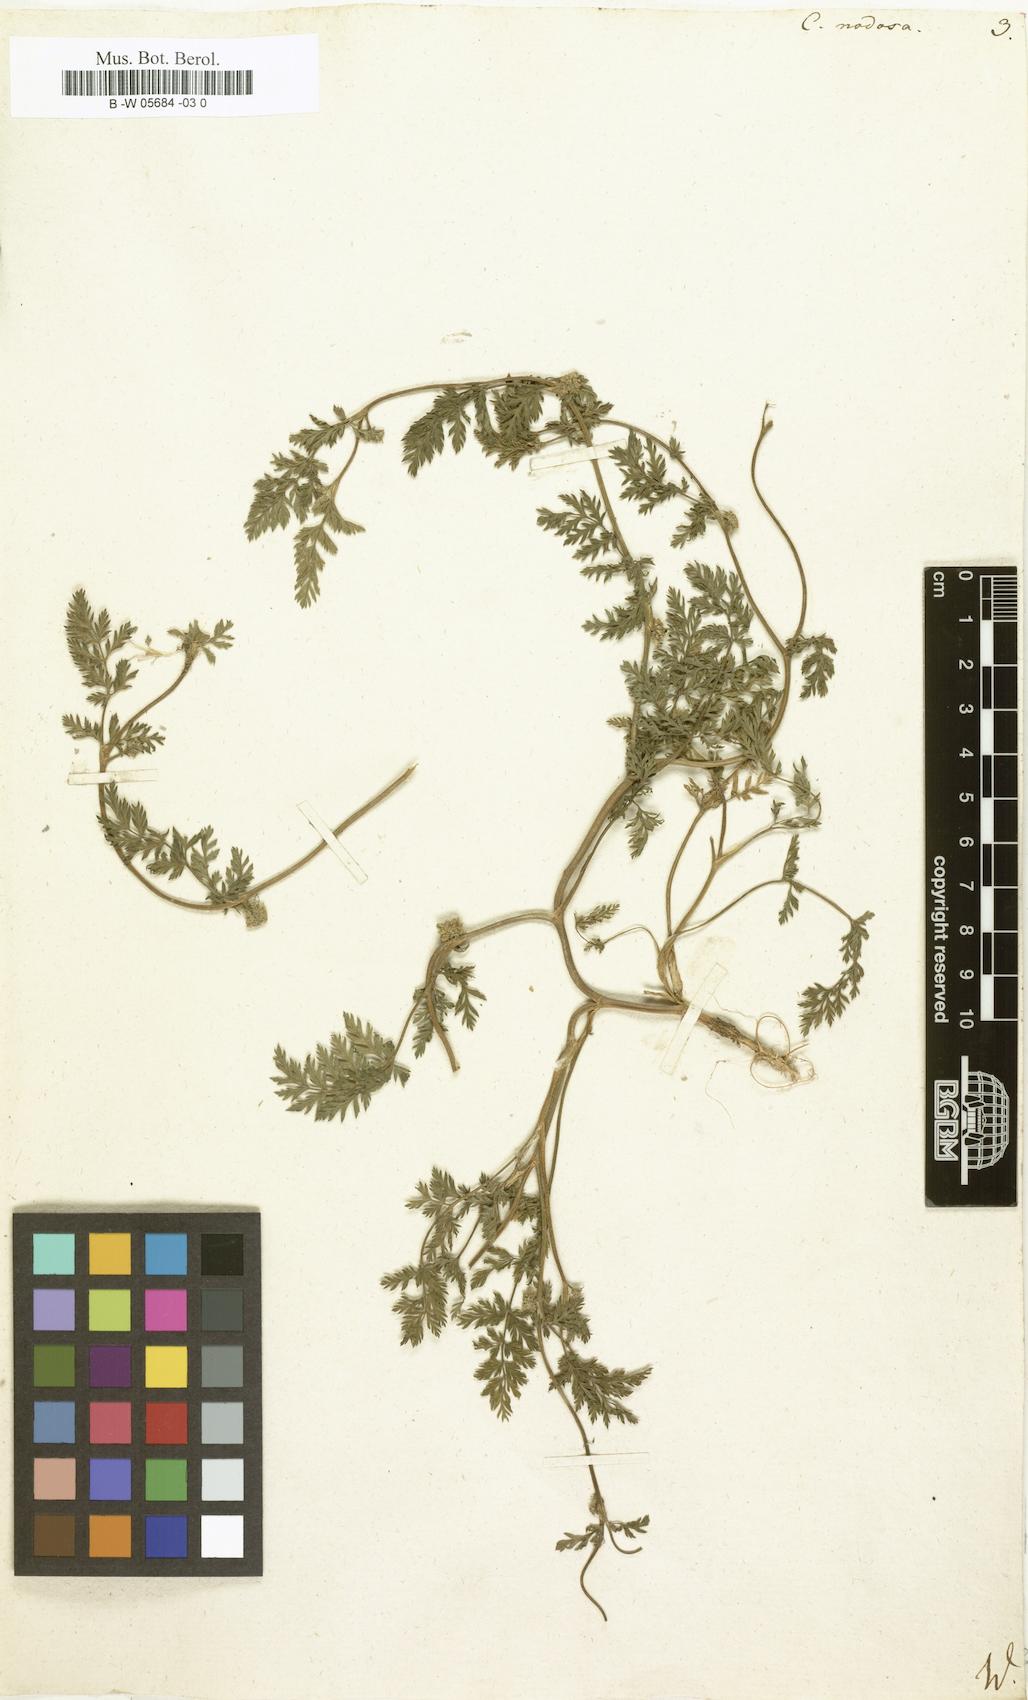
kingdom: Plantae
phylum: Tracheophyta
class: Magnoliopsida
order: Apiales
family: Apiaceae
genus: Torilis
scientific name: Torilis nodosa
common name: Knotted hedge-parsley
